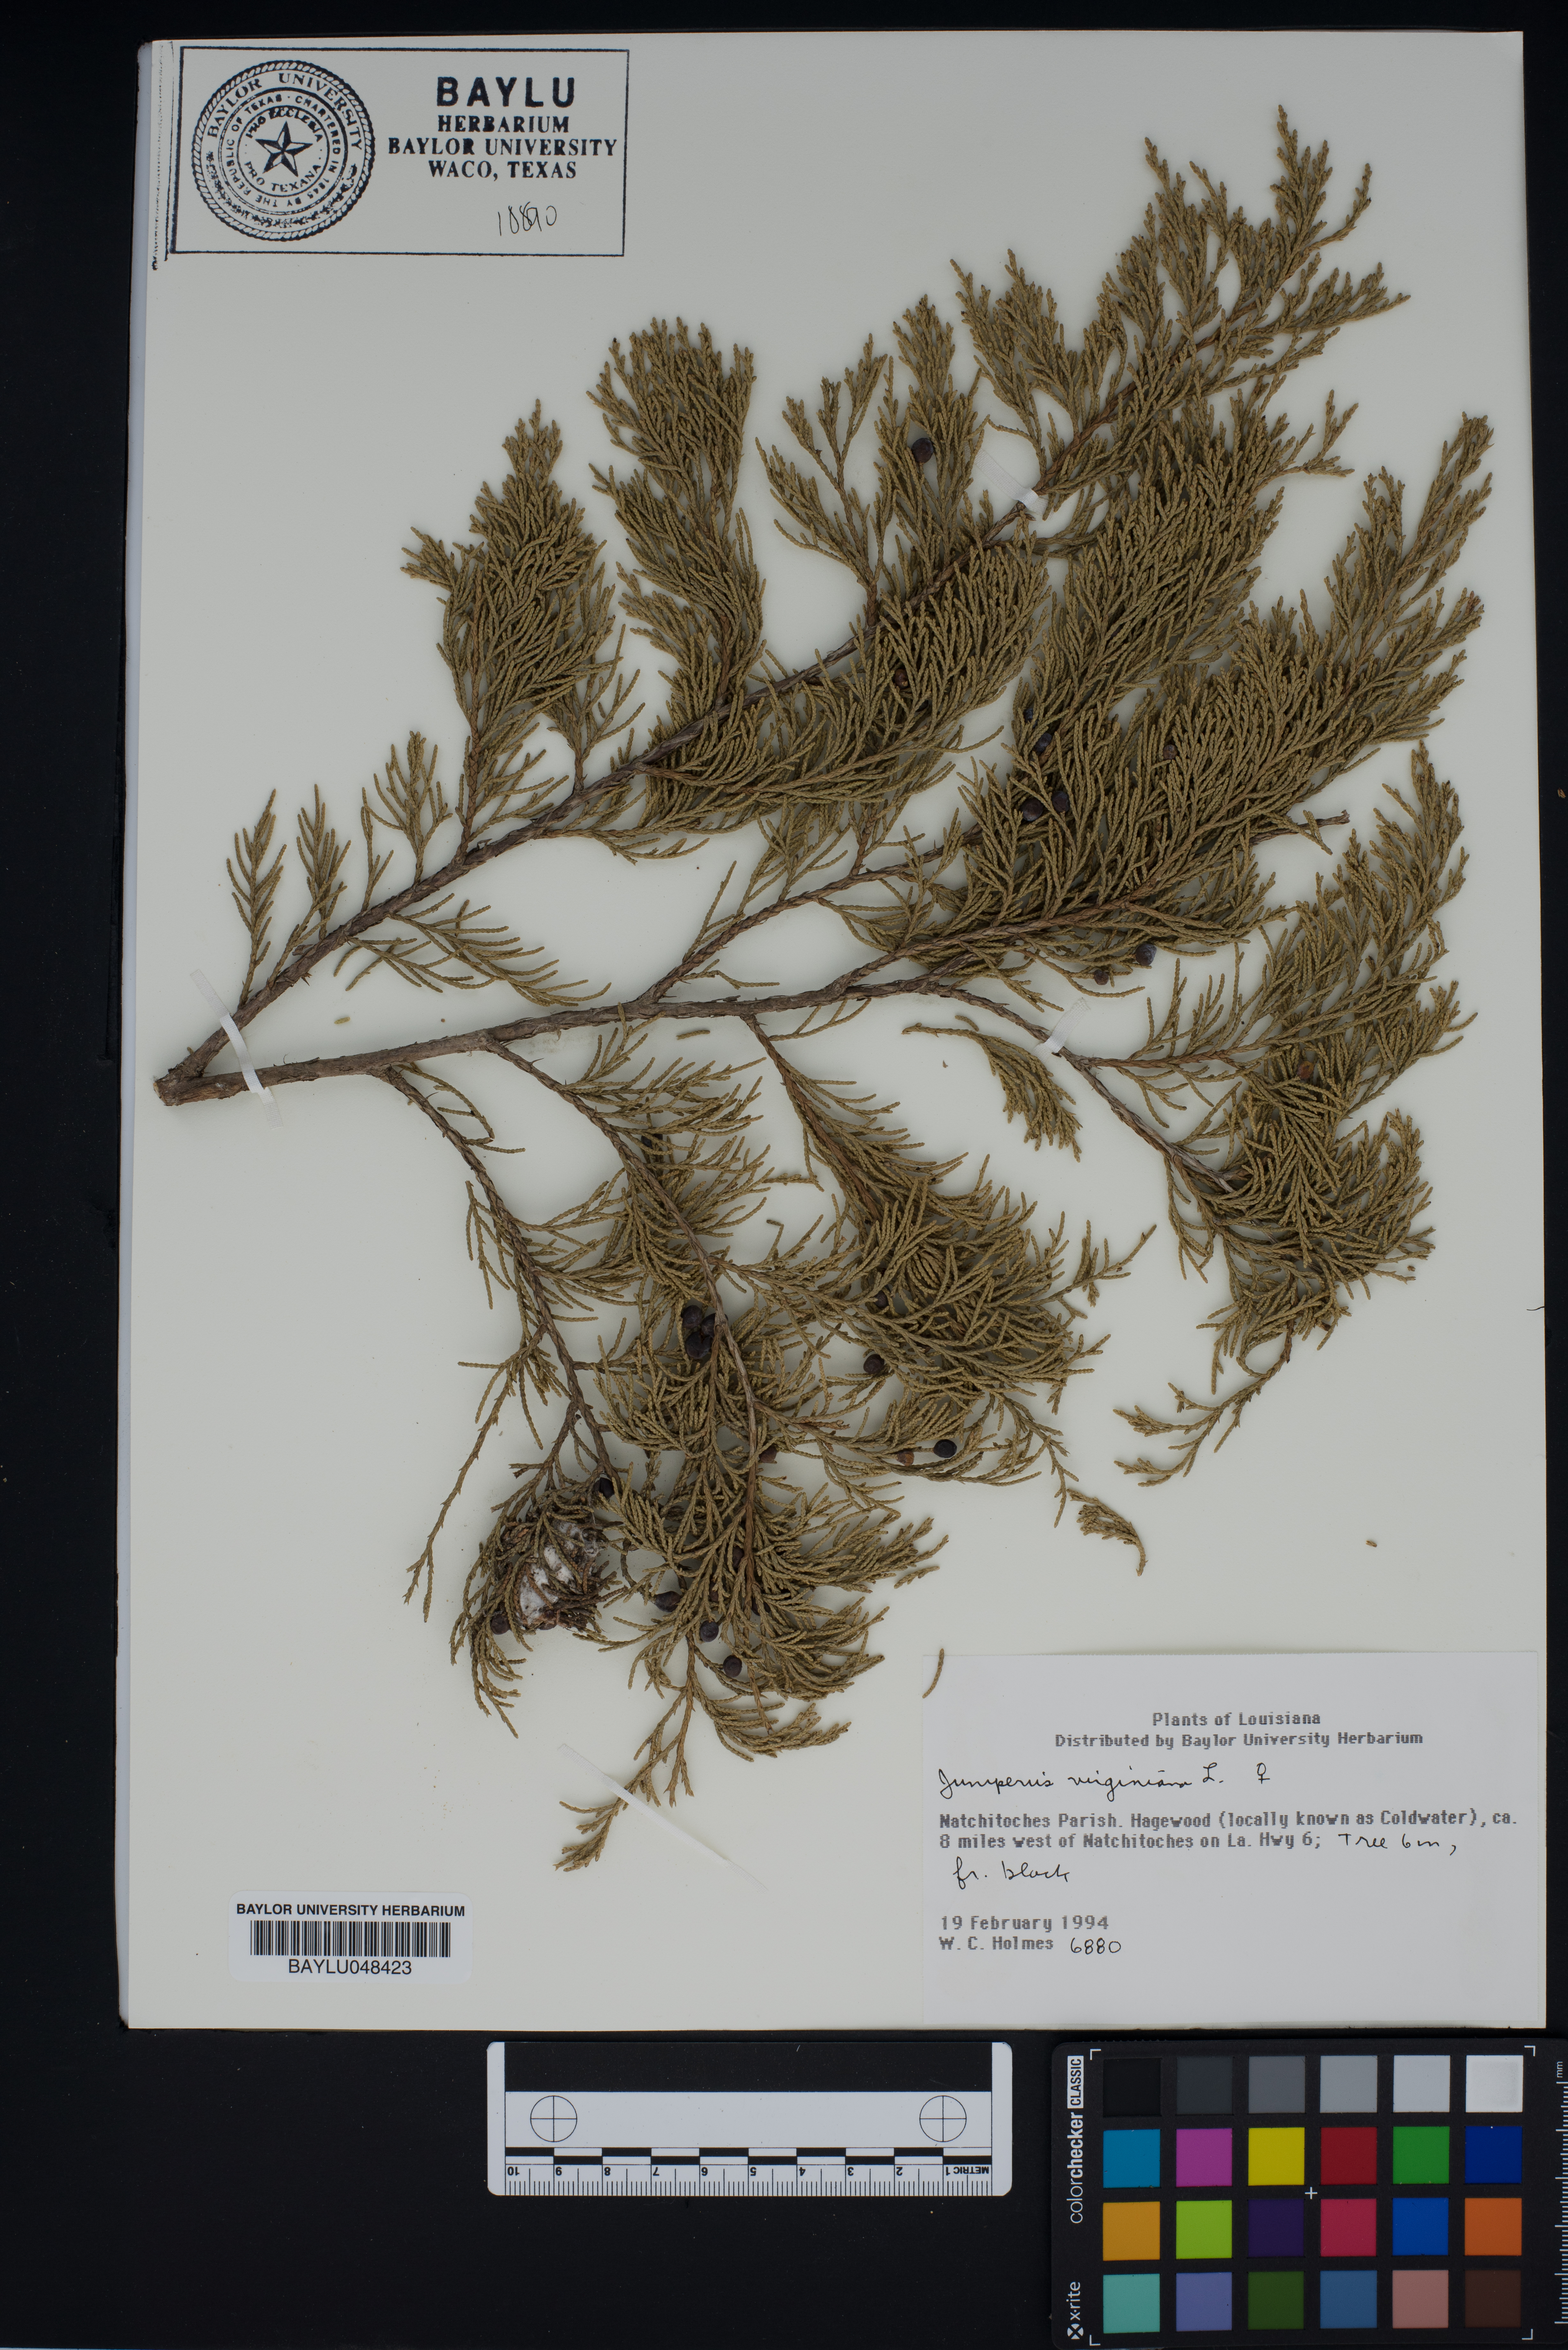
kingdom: Plantae
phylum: Tracheophyta
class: Pinopsida
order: Pinales
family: Cupressaceae
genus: Juniperus
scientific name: Juniperus virginiana
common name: Red juniper
